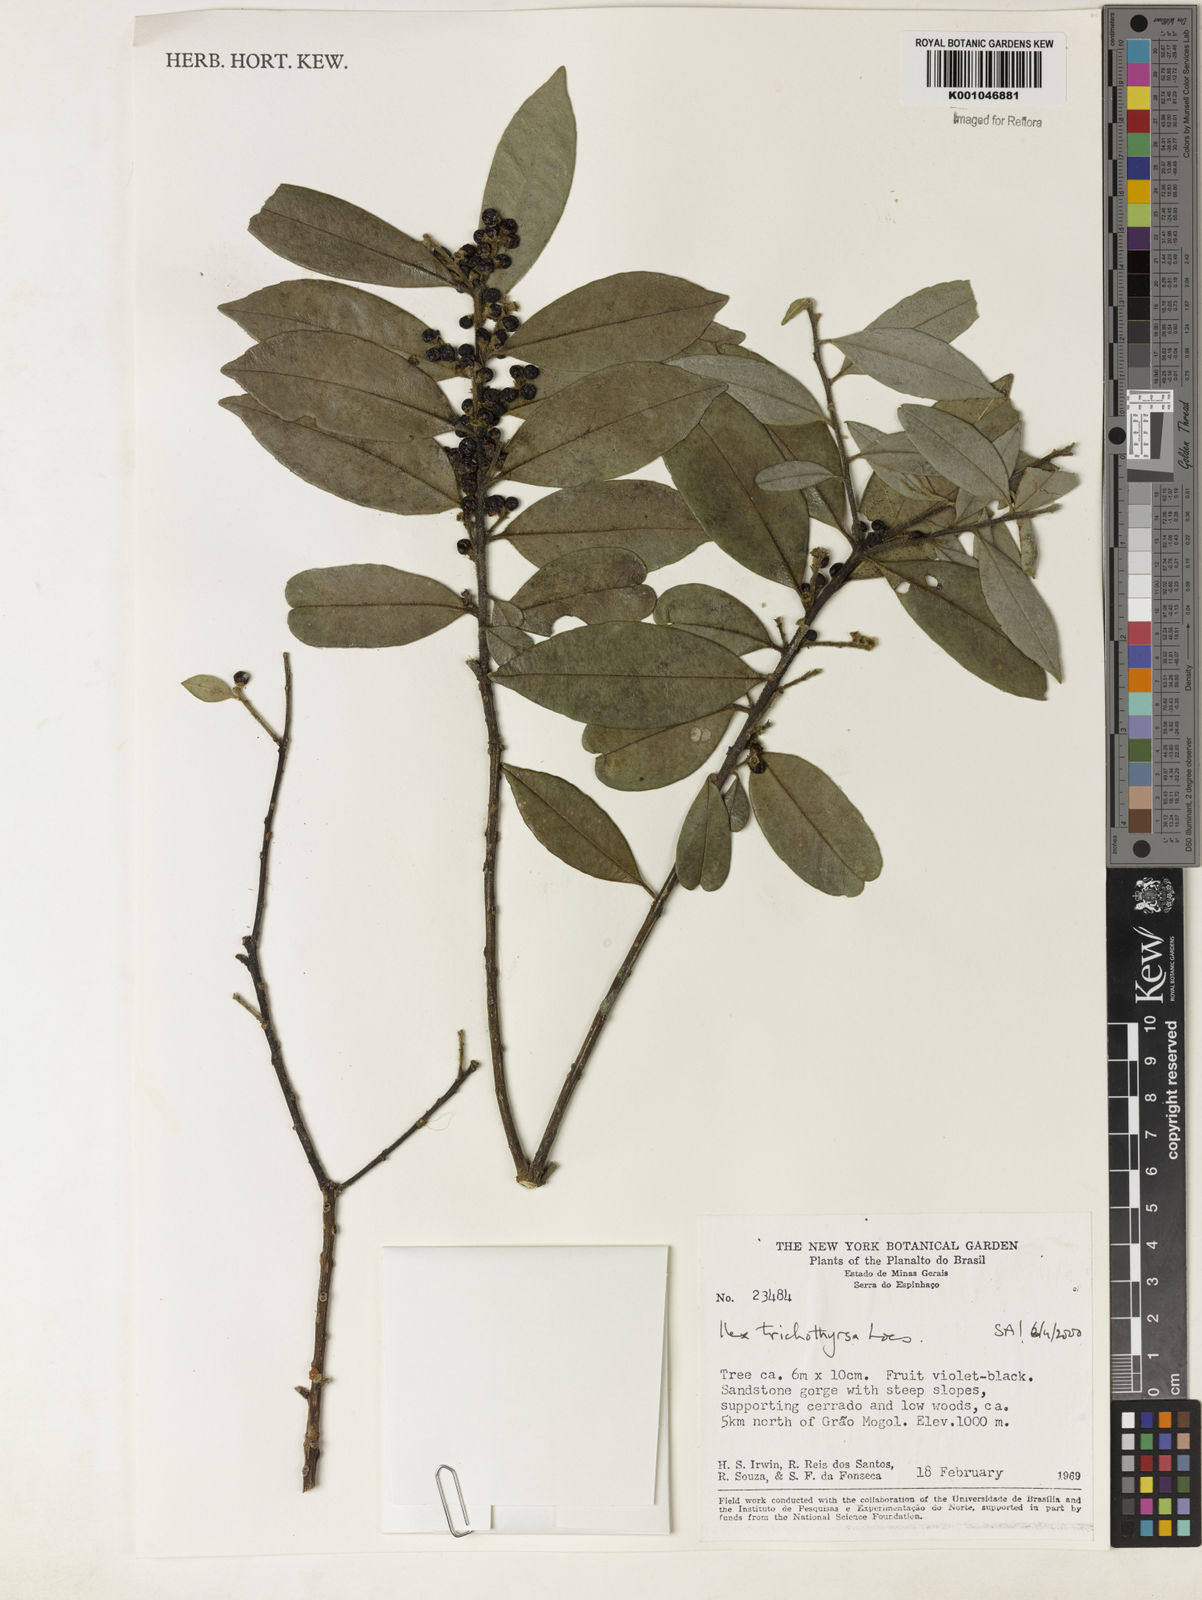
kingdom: Plantae
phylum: Tracheophyta
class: Magnoliopsida
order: Aquifoliales
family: Aquifoliaceae
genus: Ilex
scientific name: Ilex trichothyrsa
